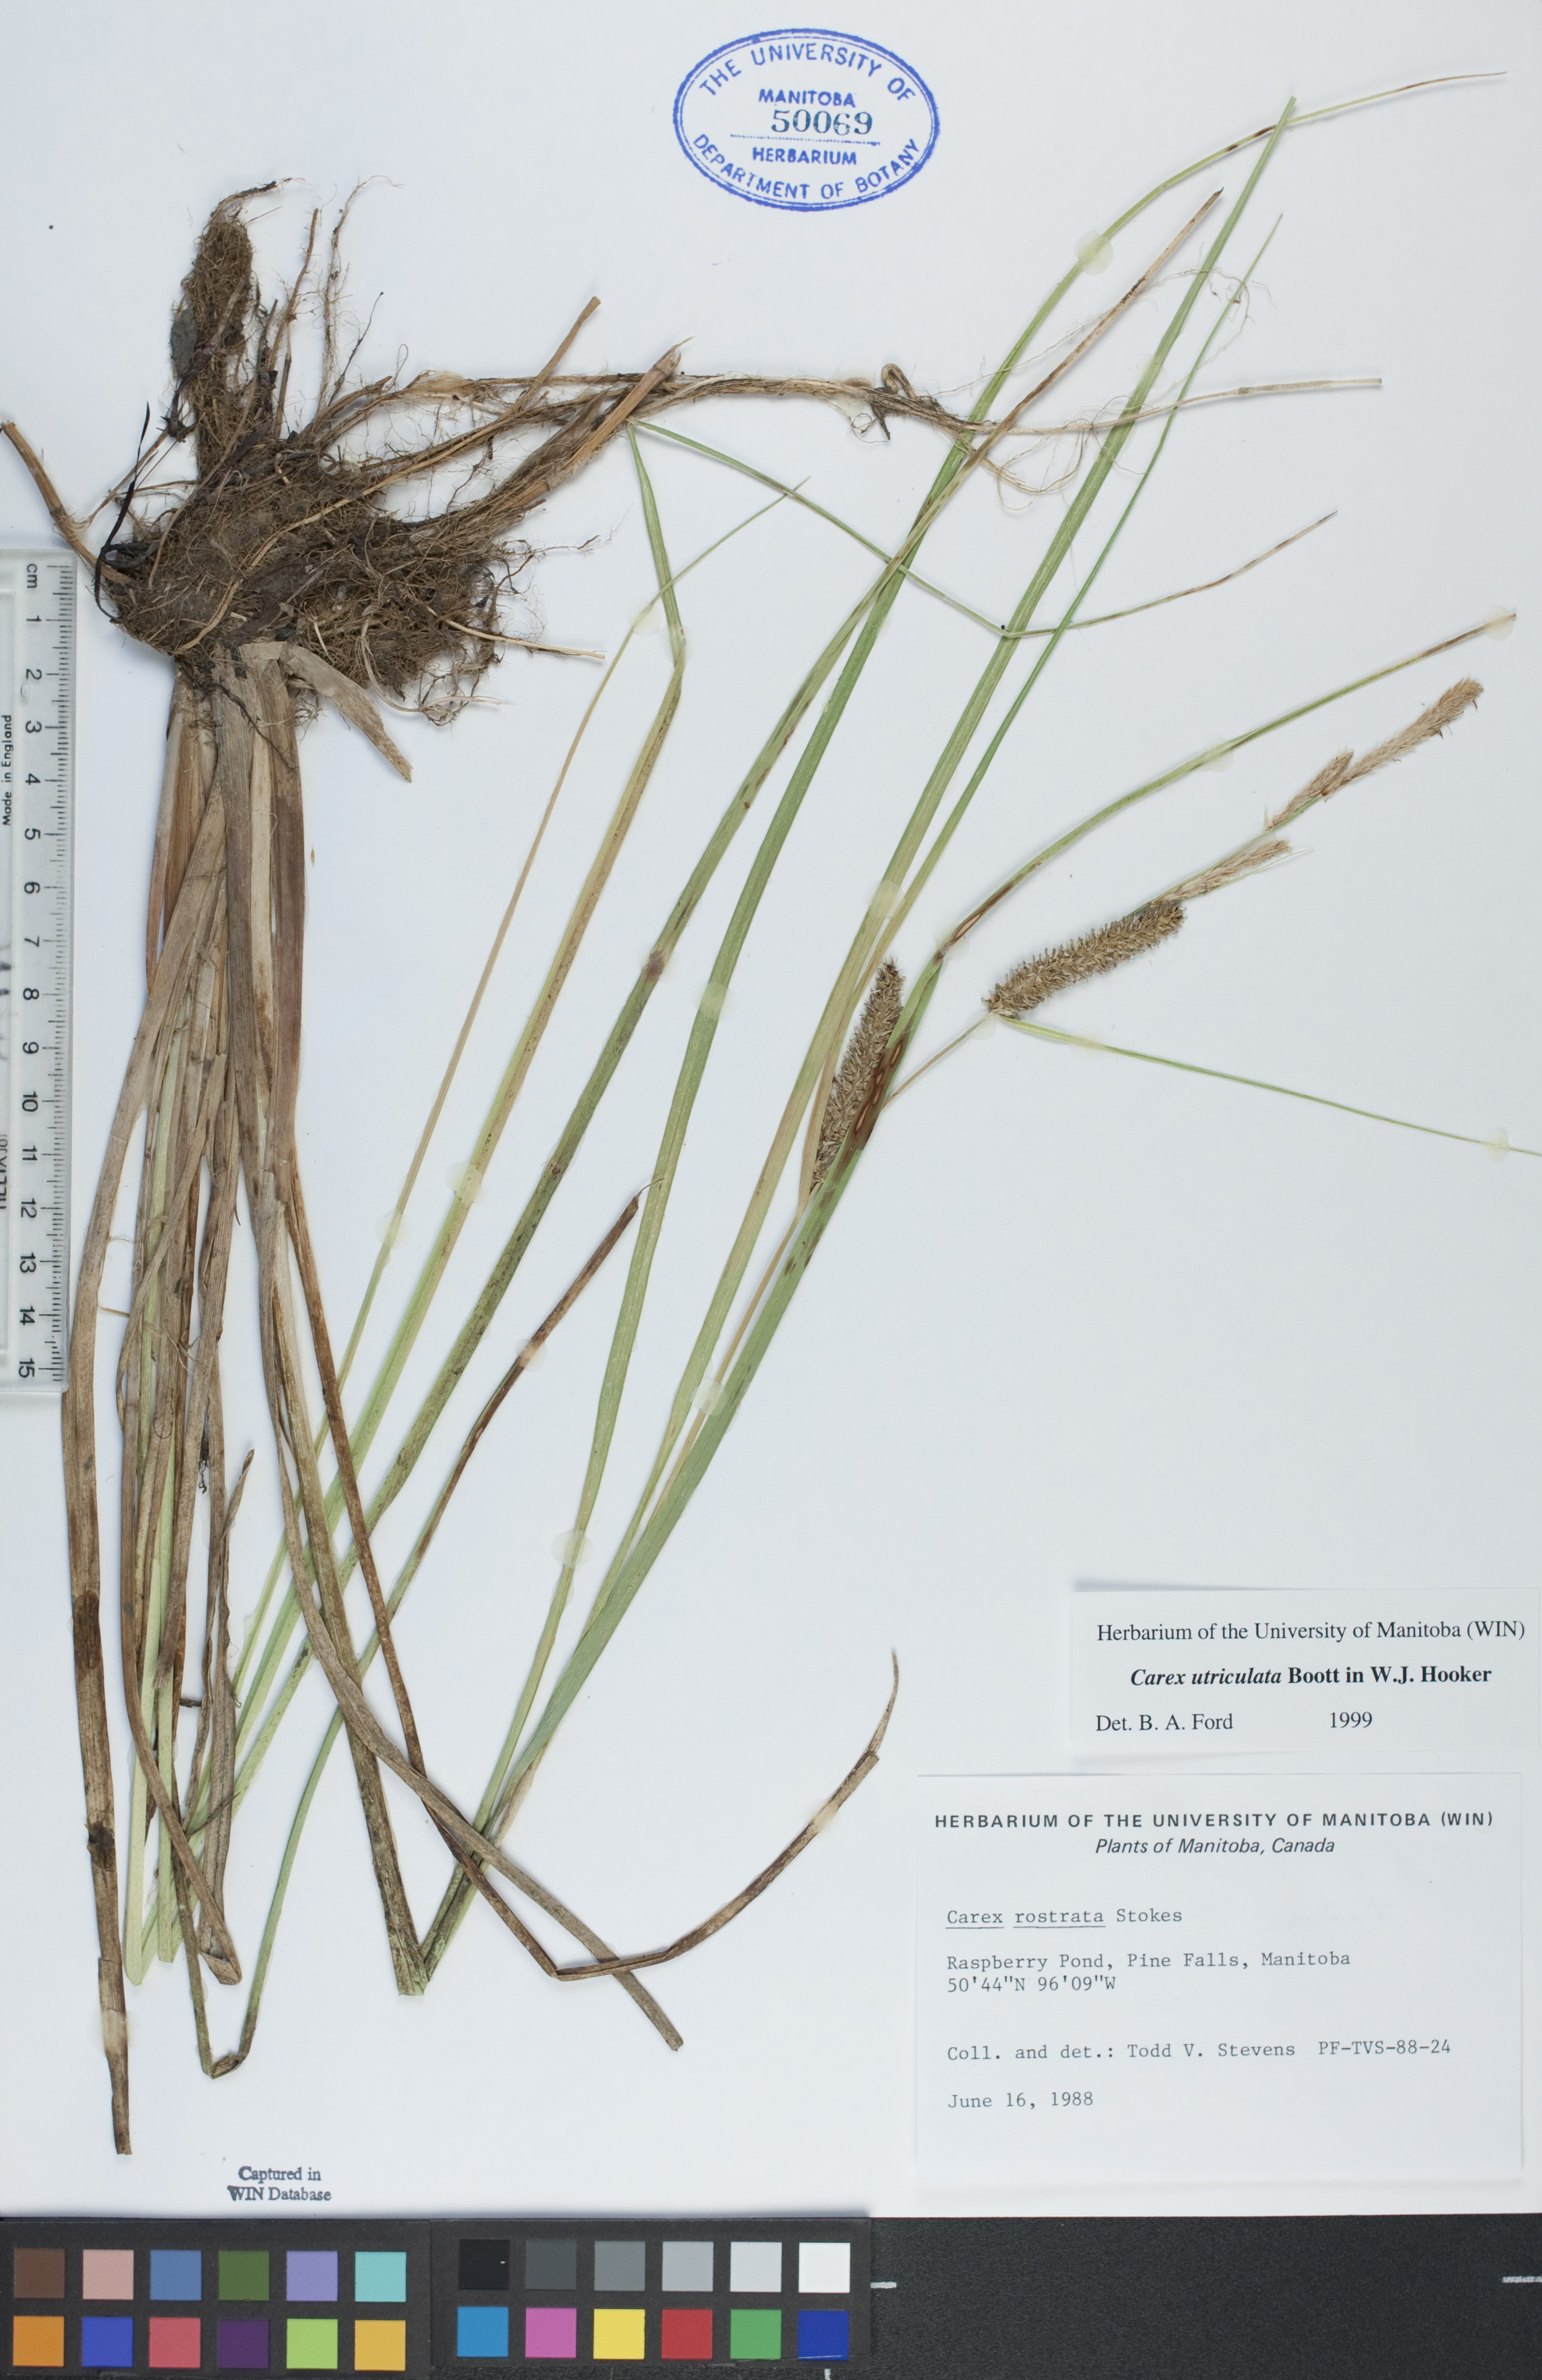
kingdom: Plantae
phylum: Tracheophyta
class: Liliopsida
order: Poales
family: Cyperaceae
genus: Carex
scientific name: Carex rostrata
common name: Bottle sedge
